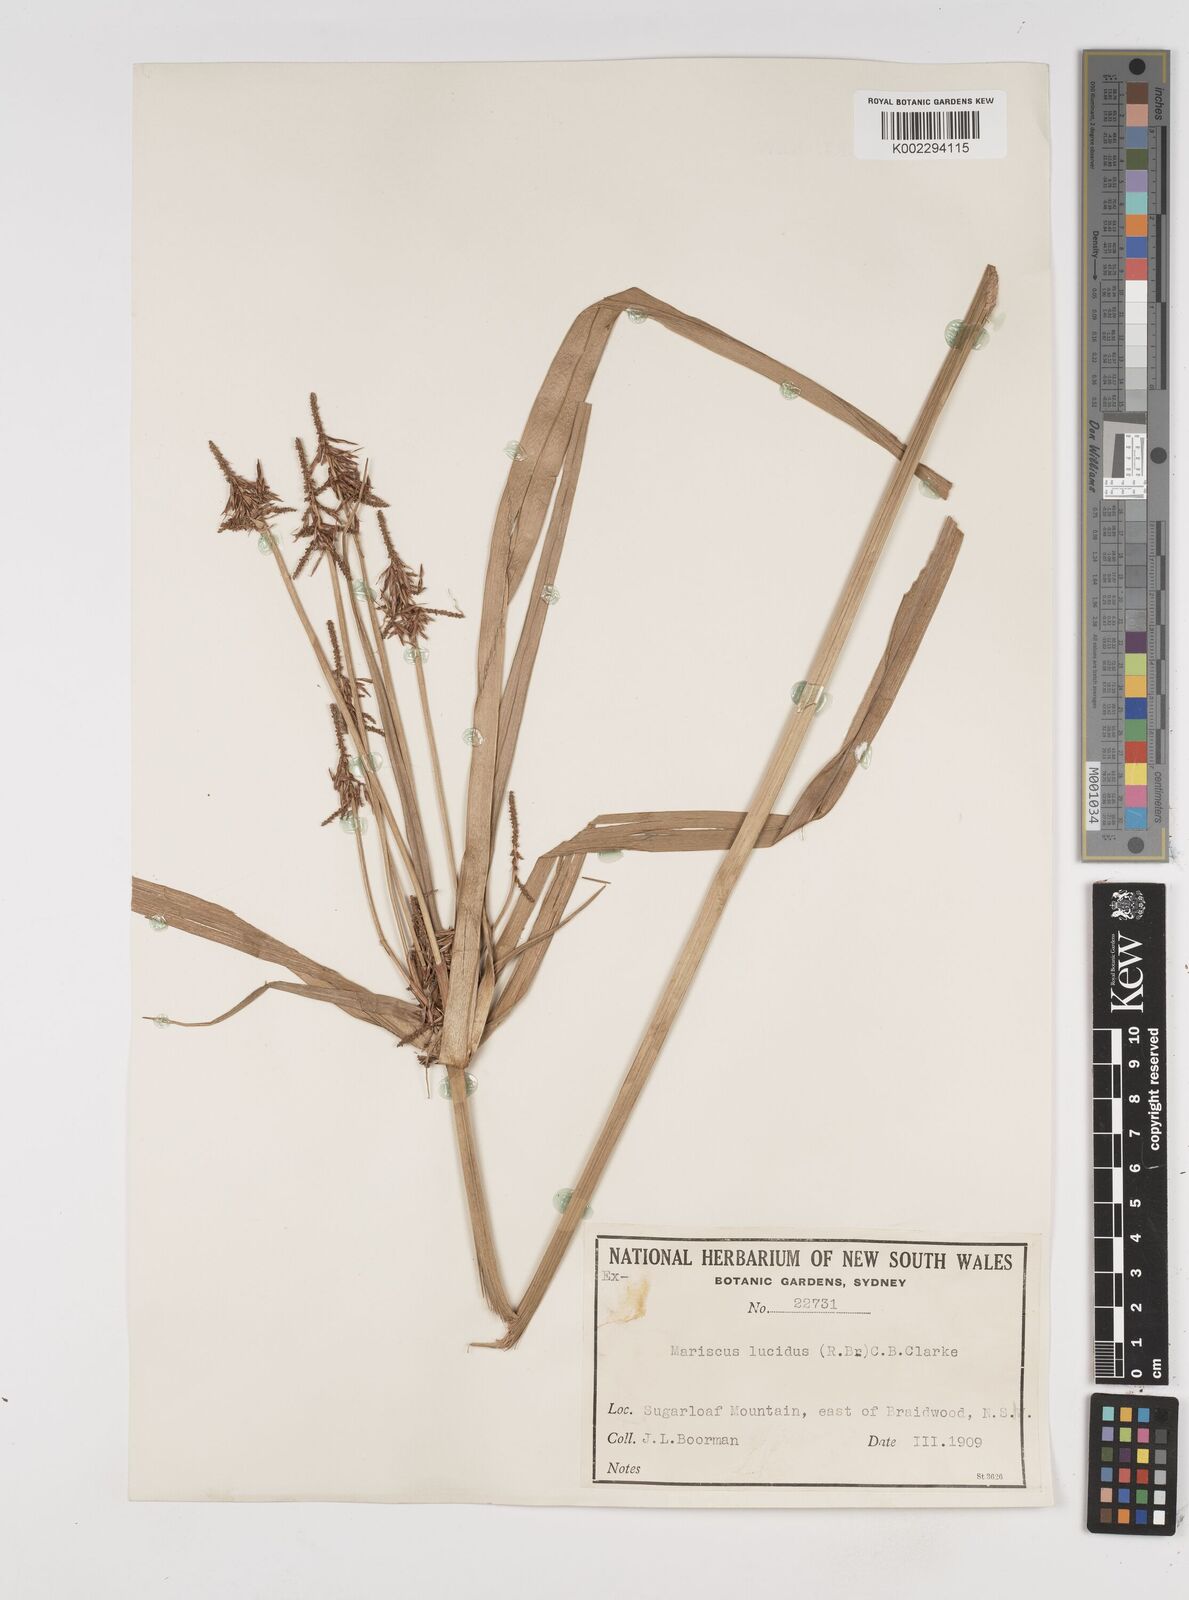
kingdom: Plantae
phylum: Tracheophyta
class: Liliopsida
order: Poales
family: Cyperaceae
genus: Cyperus
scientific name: Cyperus lucidus
